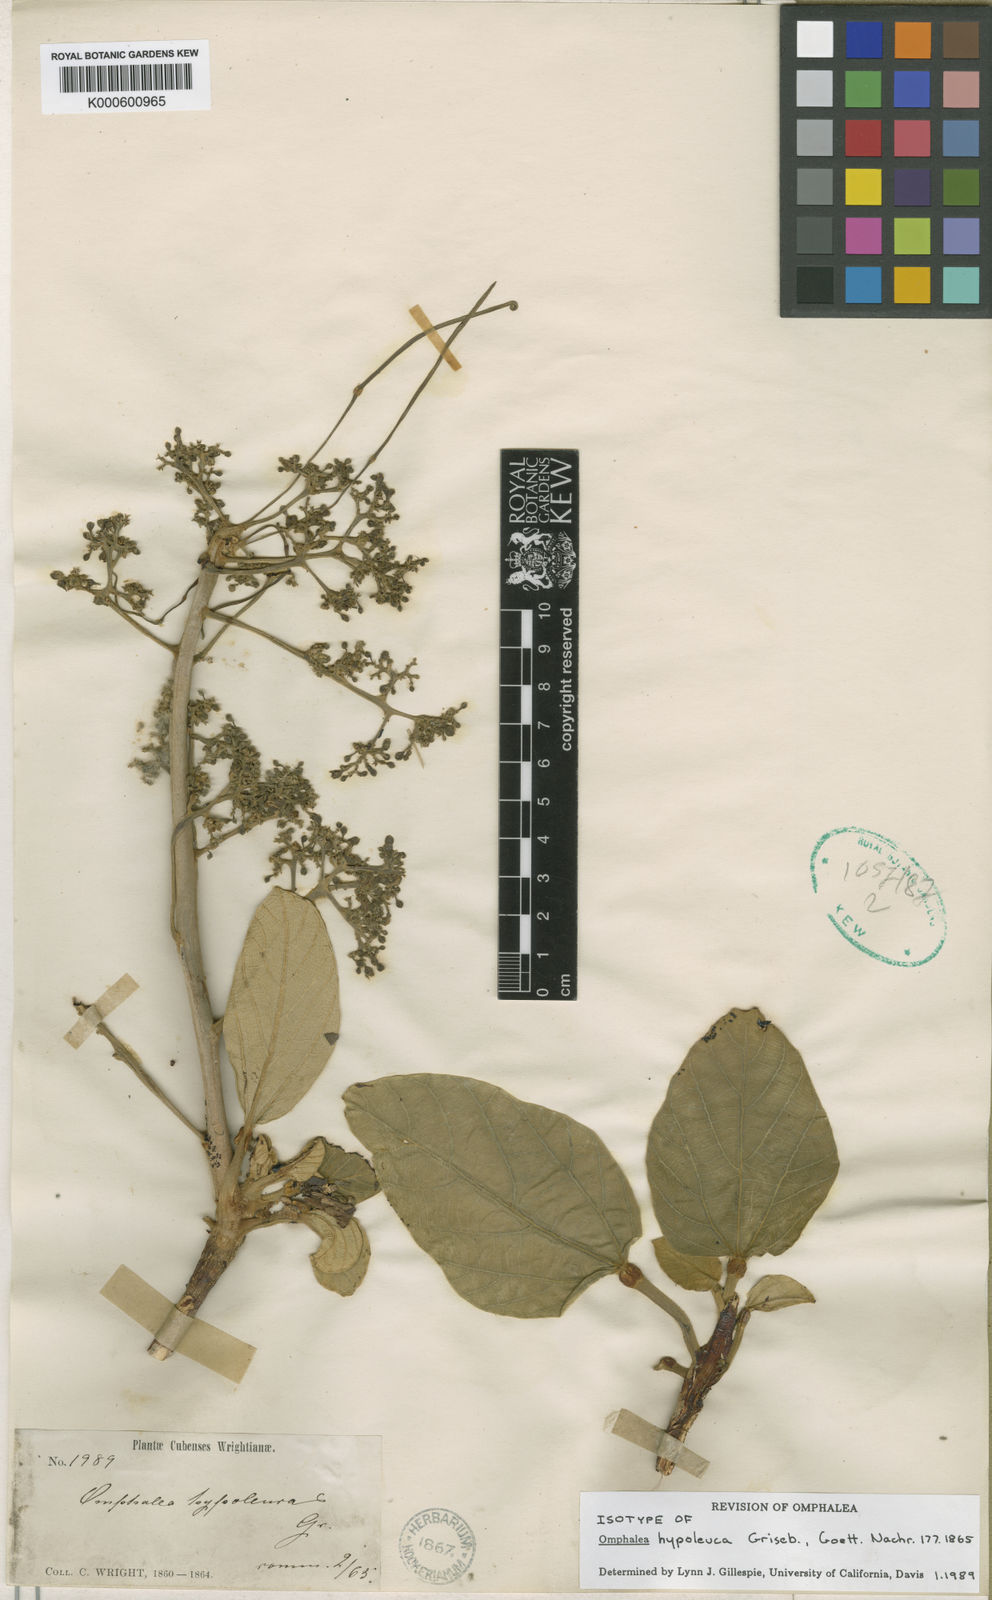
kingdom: Plantae
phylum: Tracheophyta
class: Magnoliopsida
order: Malpighiales
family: Euphorbiaceae
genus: Omphalea
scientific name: Omphalea hypoleuca
